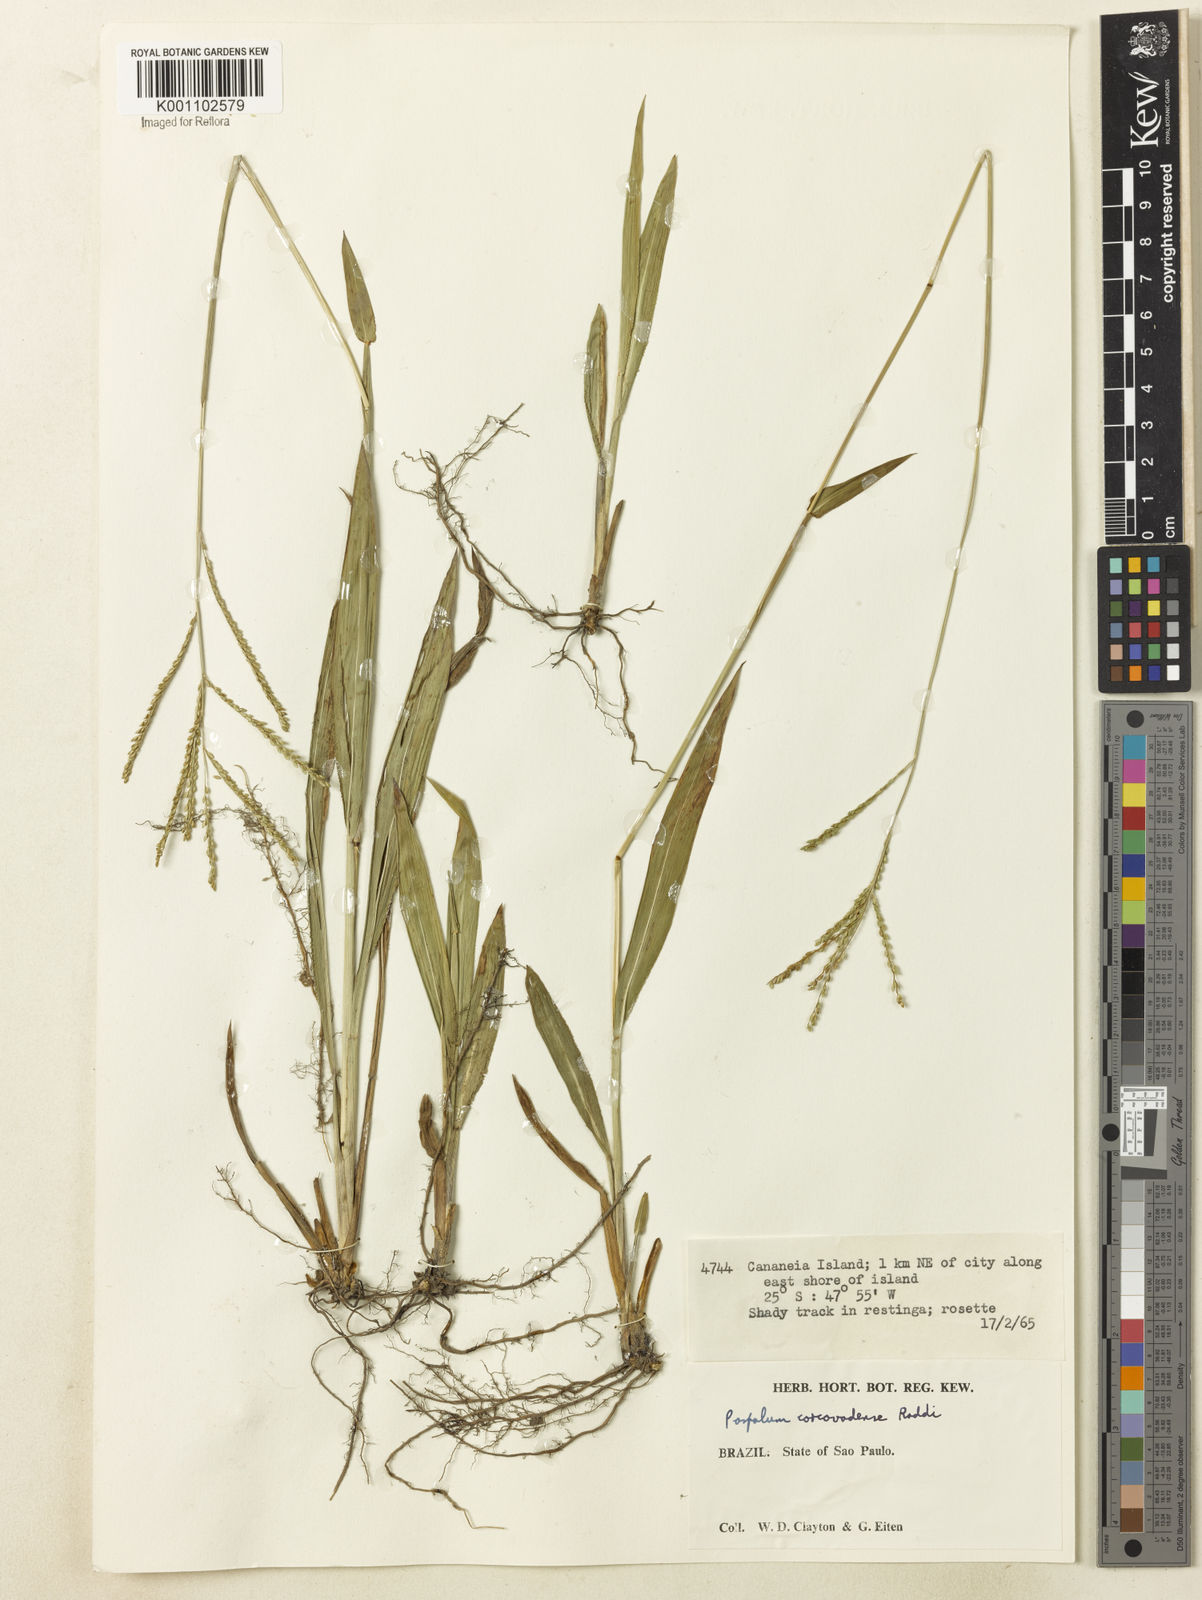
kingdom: Plantae
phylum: Tracheophyta
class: Liliopsida
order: Poales
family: Poaceae
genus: Paspalum
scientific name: Paspalum corcovadense
